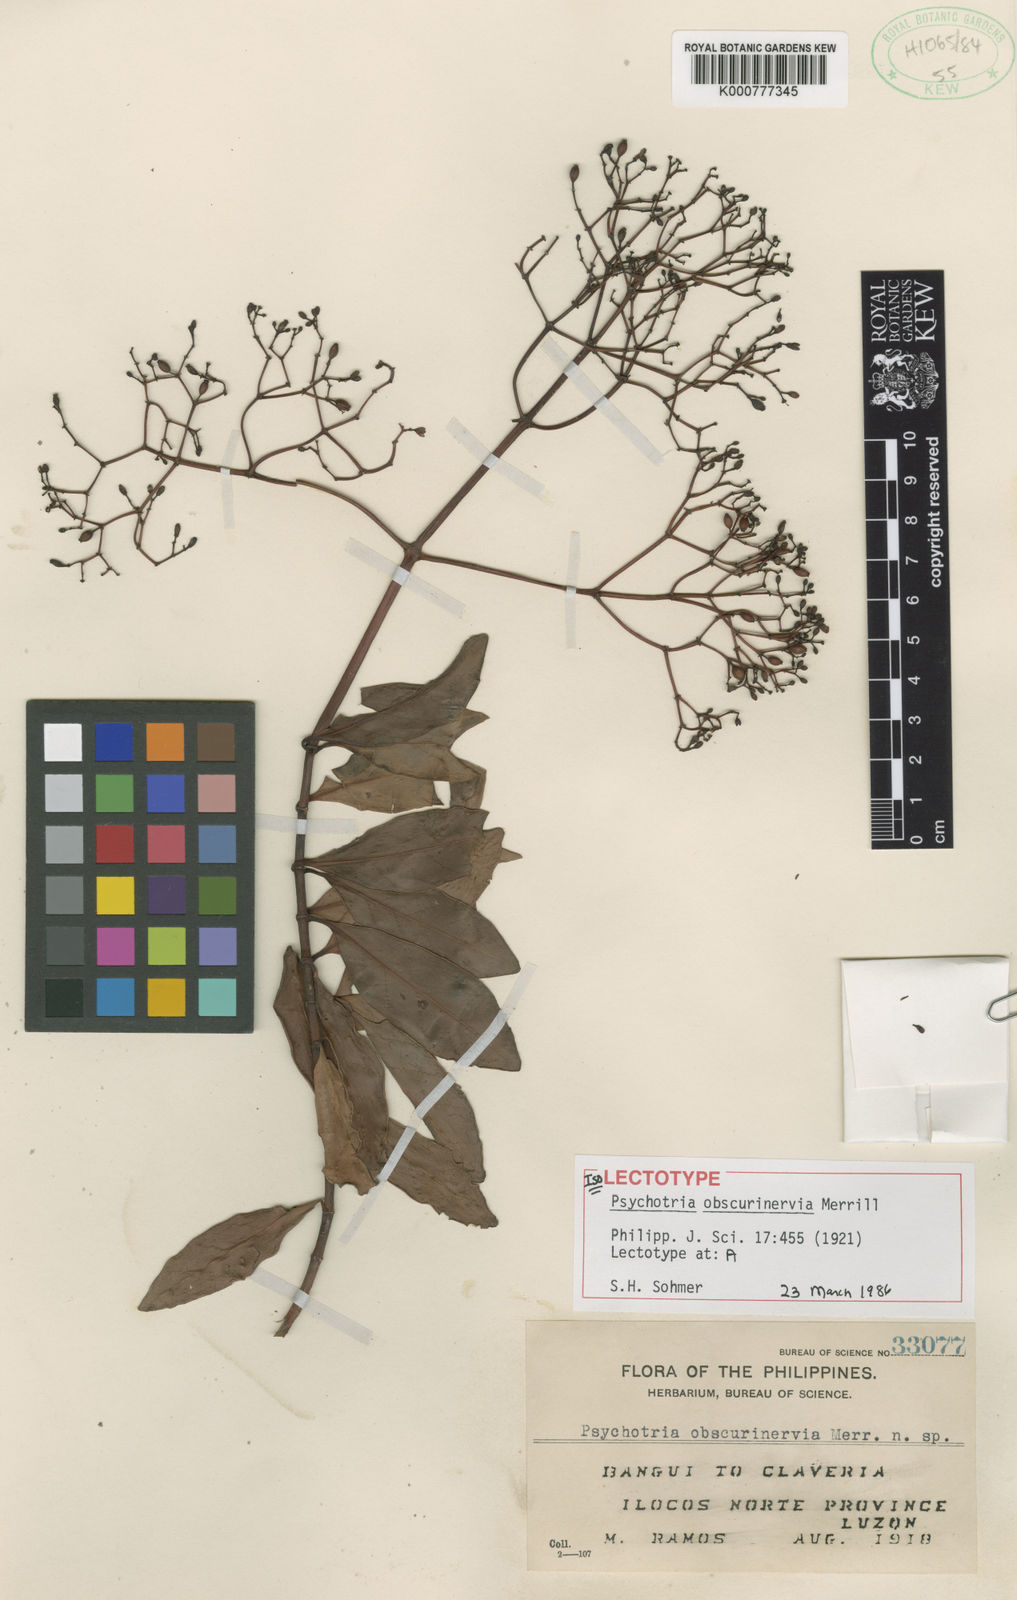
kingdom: Plantae
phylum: Tracheophyta
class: Magnoliopsida
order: Gentianales
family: Rubiaceae
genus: Psychotria
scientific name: Psychotria obscurinervia
